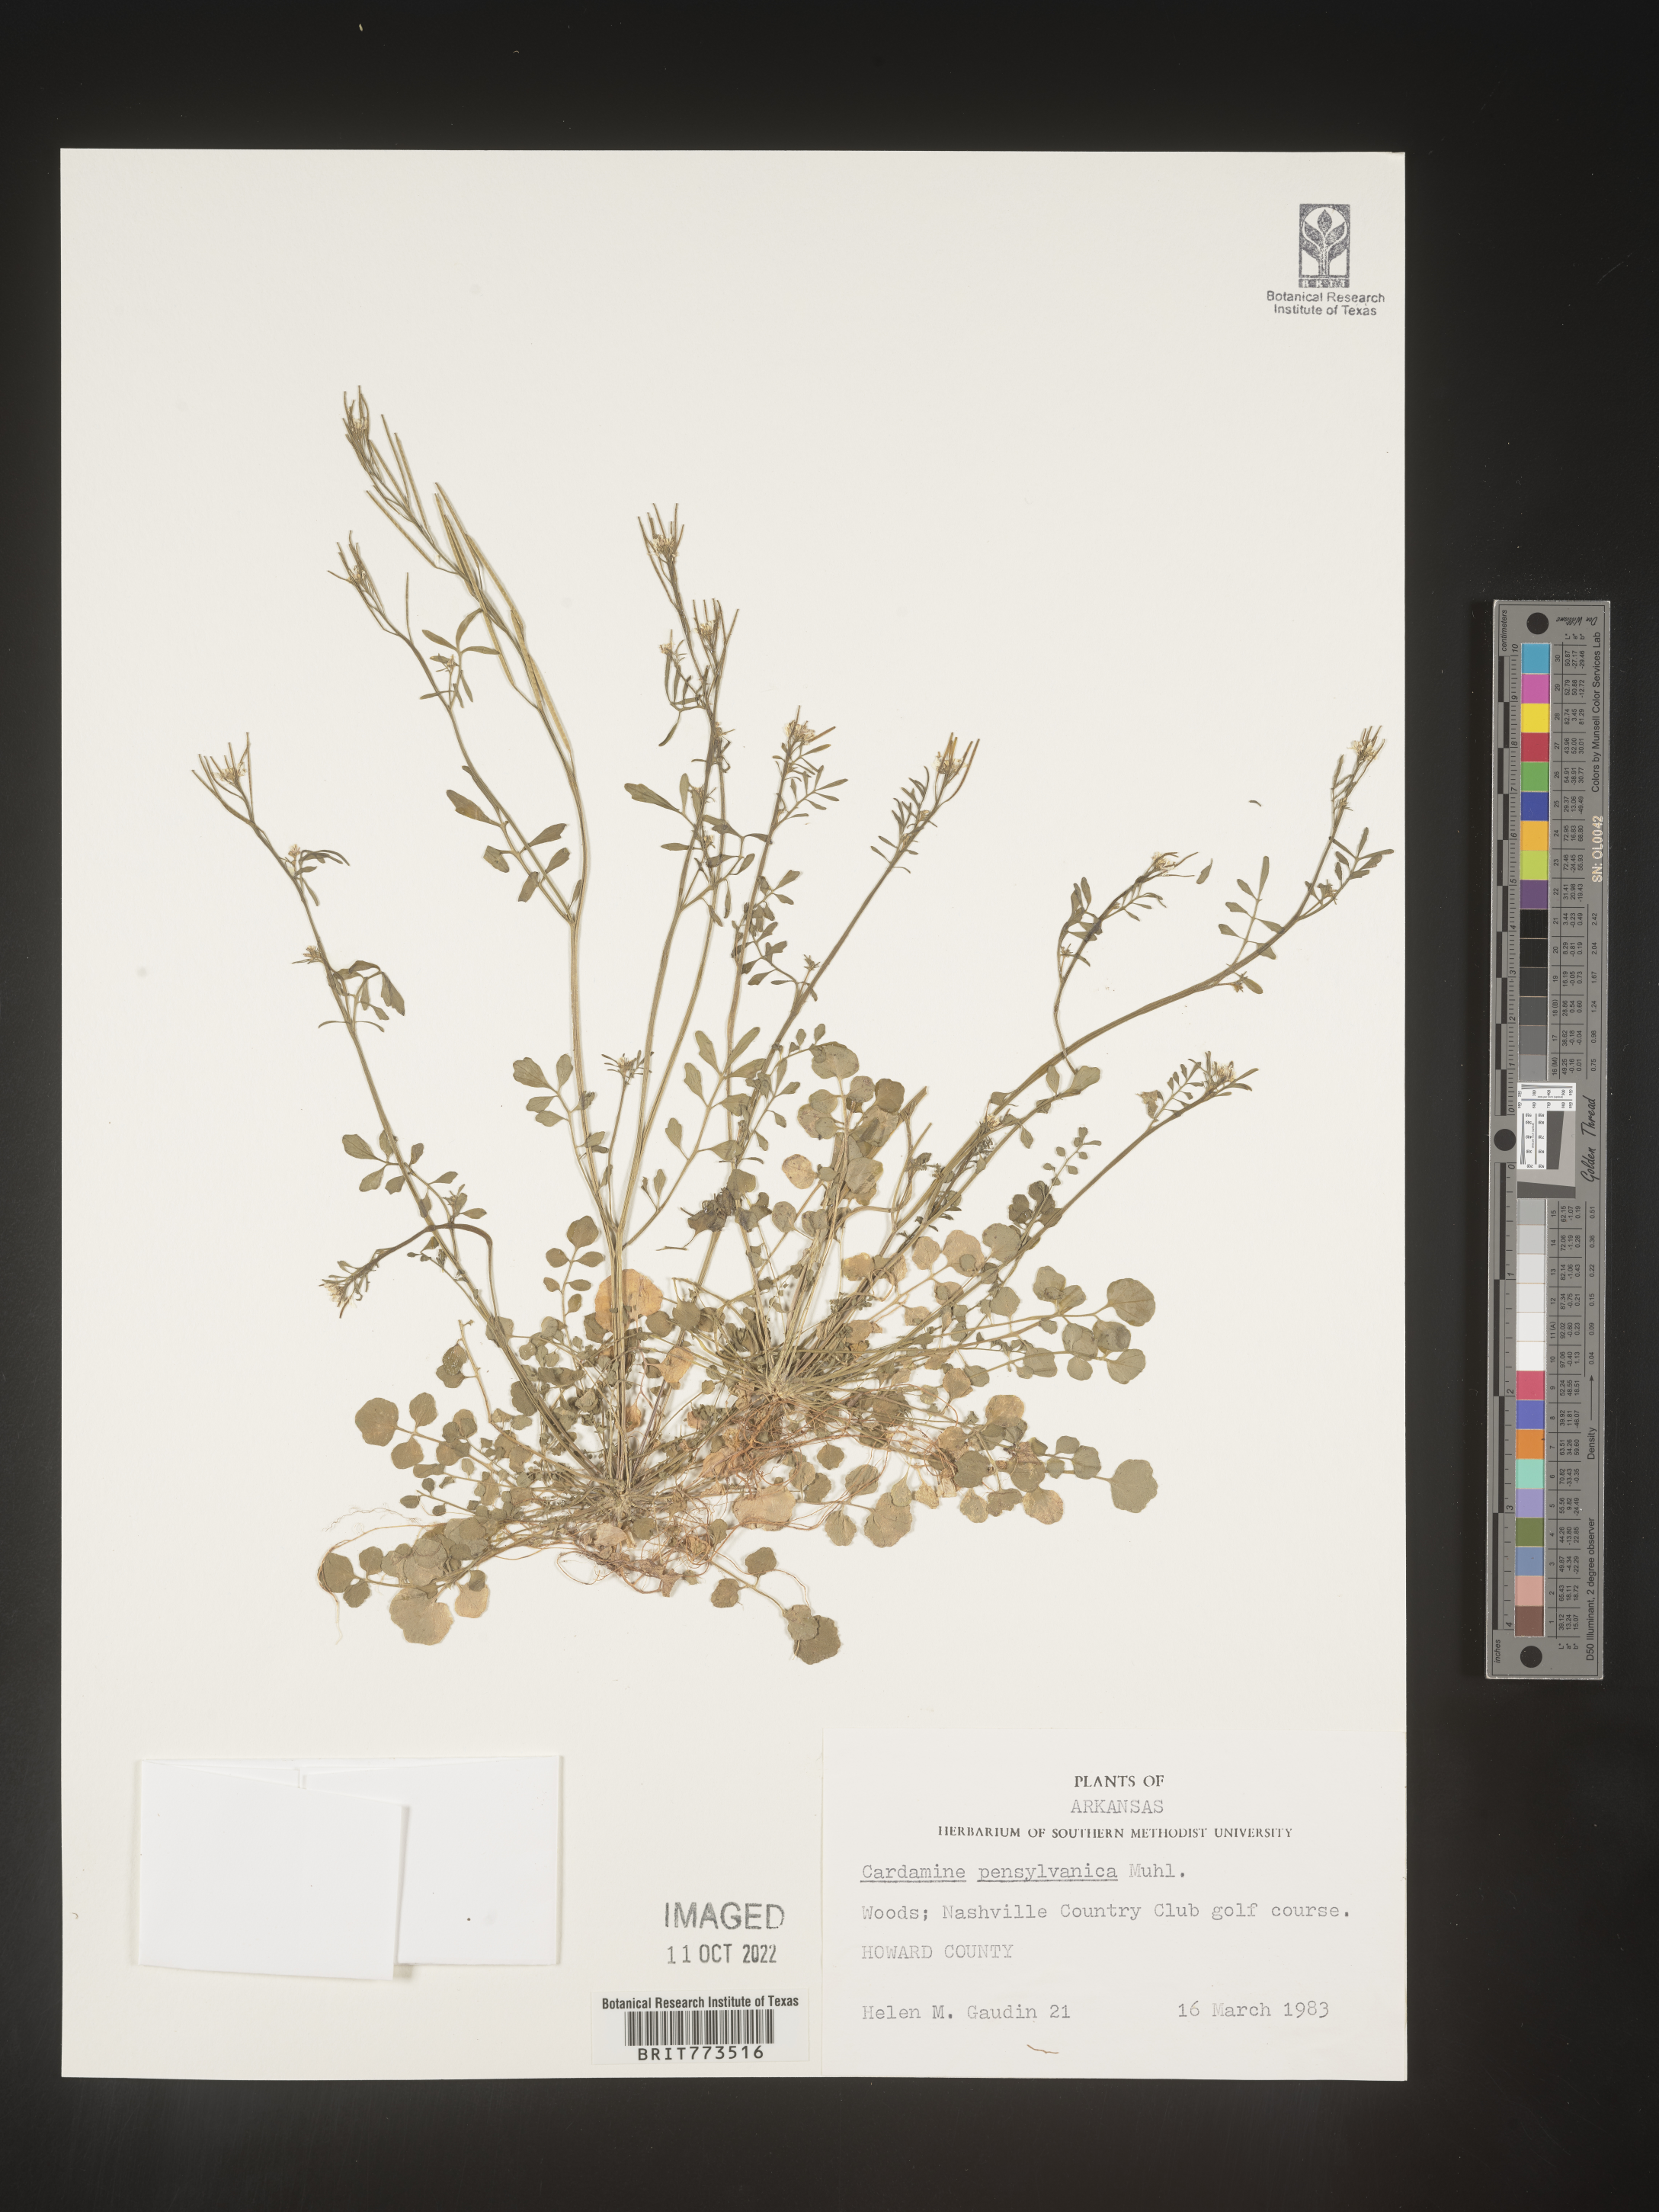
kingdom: Plantae
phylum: Tracheophyta
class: Magnoliopsida
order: Brassicales
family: Brassicaceae
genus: Cardamine
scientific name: Cardamine pensylvanica
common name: Pennsylvania bittercress
